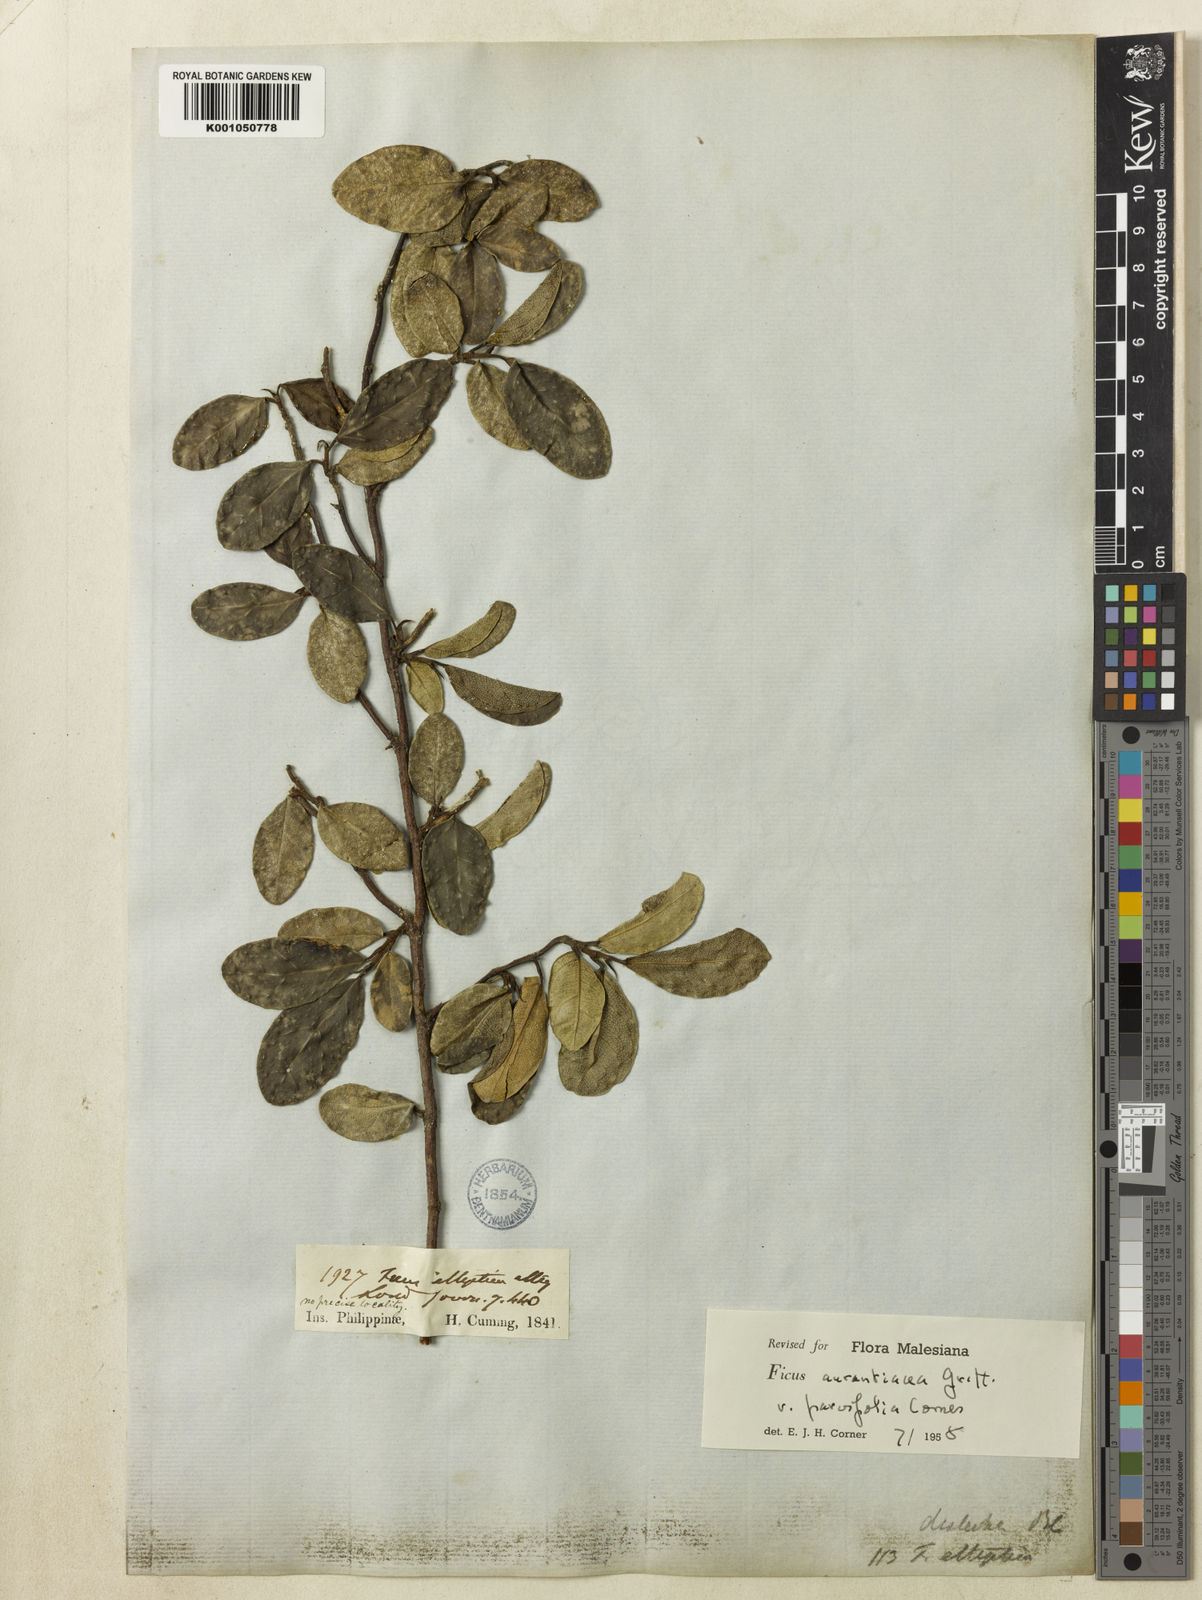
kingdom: Plantae
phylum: Tracheophyta
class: Magnoliopsida
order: Rosales
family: Moraceae
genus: Ficus
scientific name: Ficus
